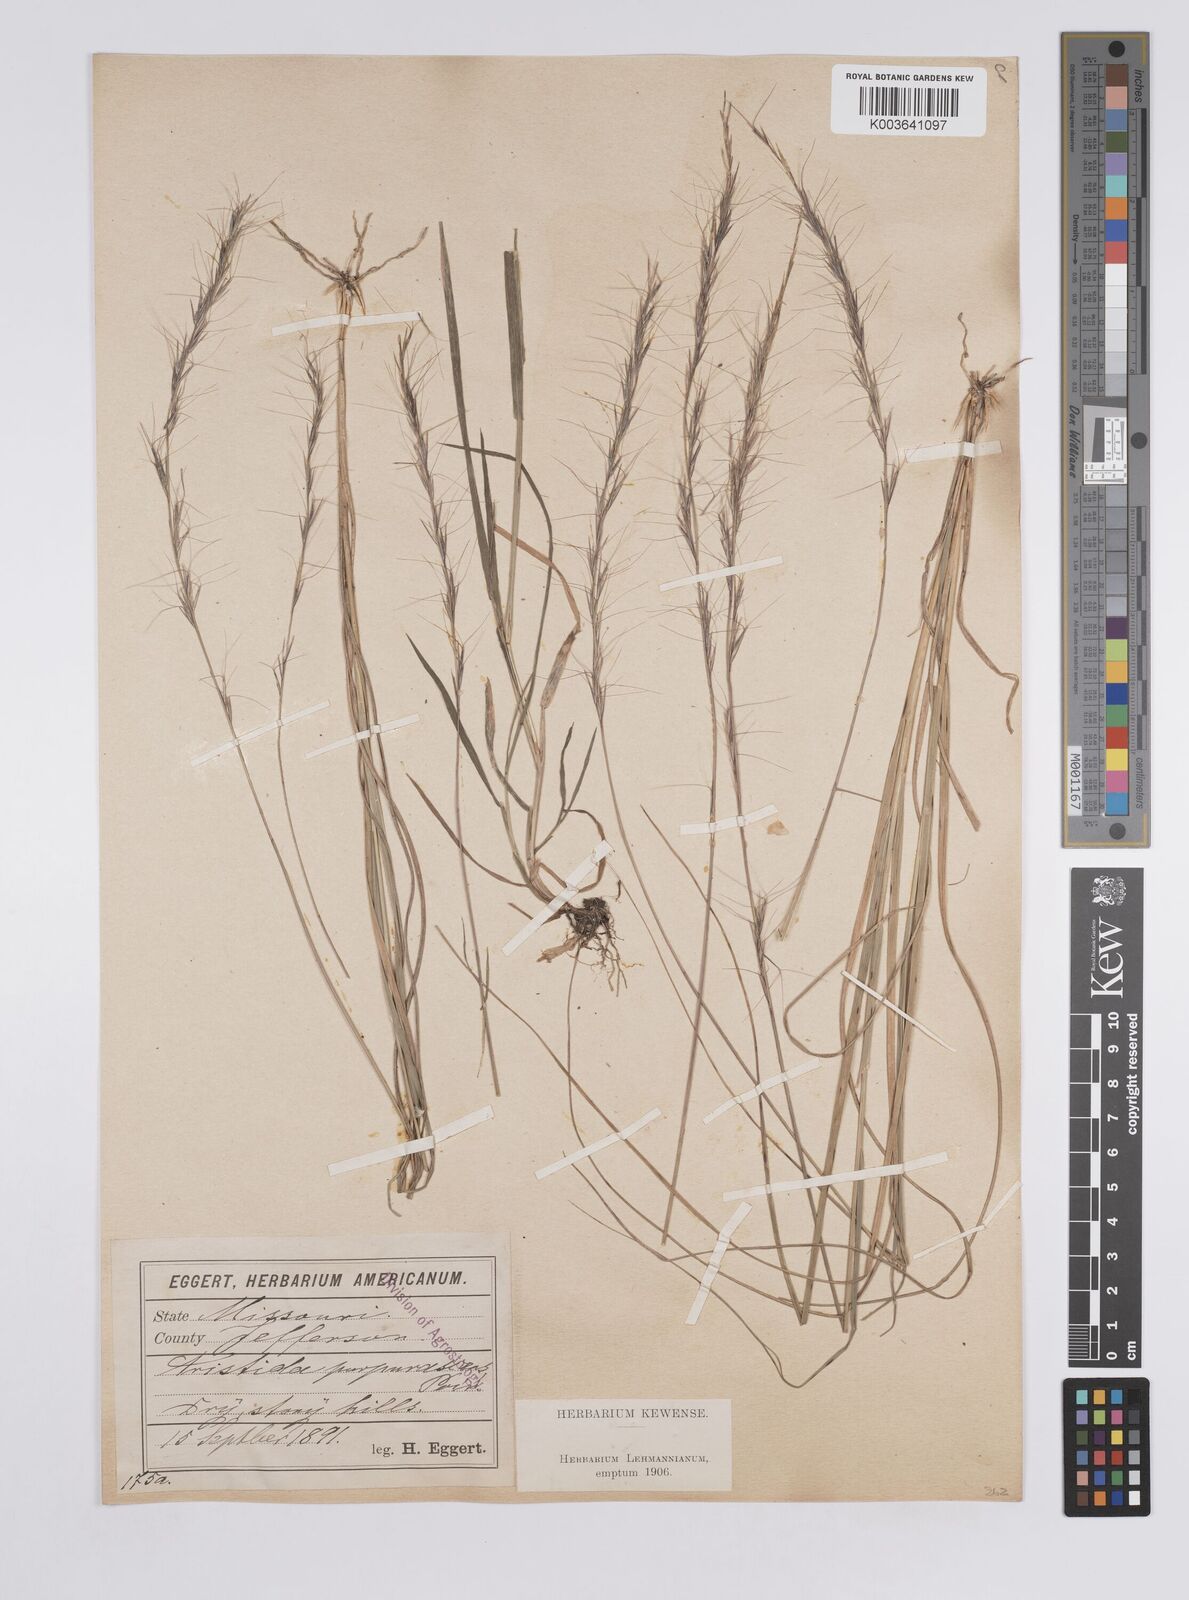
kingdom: Plantae
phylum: Tracheophyta
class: Liliopsida
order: Poales
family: Poaceae
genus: Aristida
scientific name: Aristida purpurascens
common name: Arrow-feather
